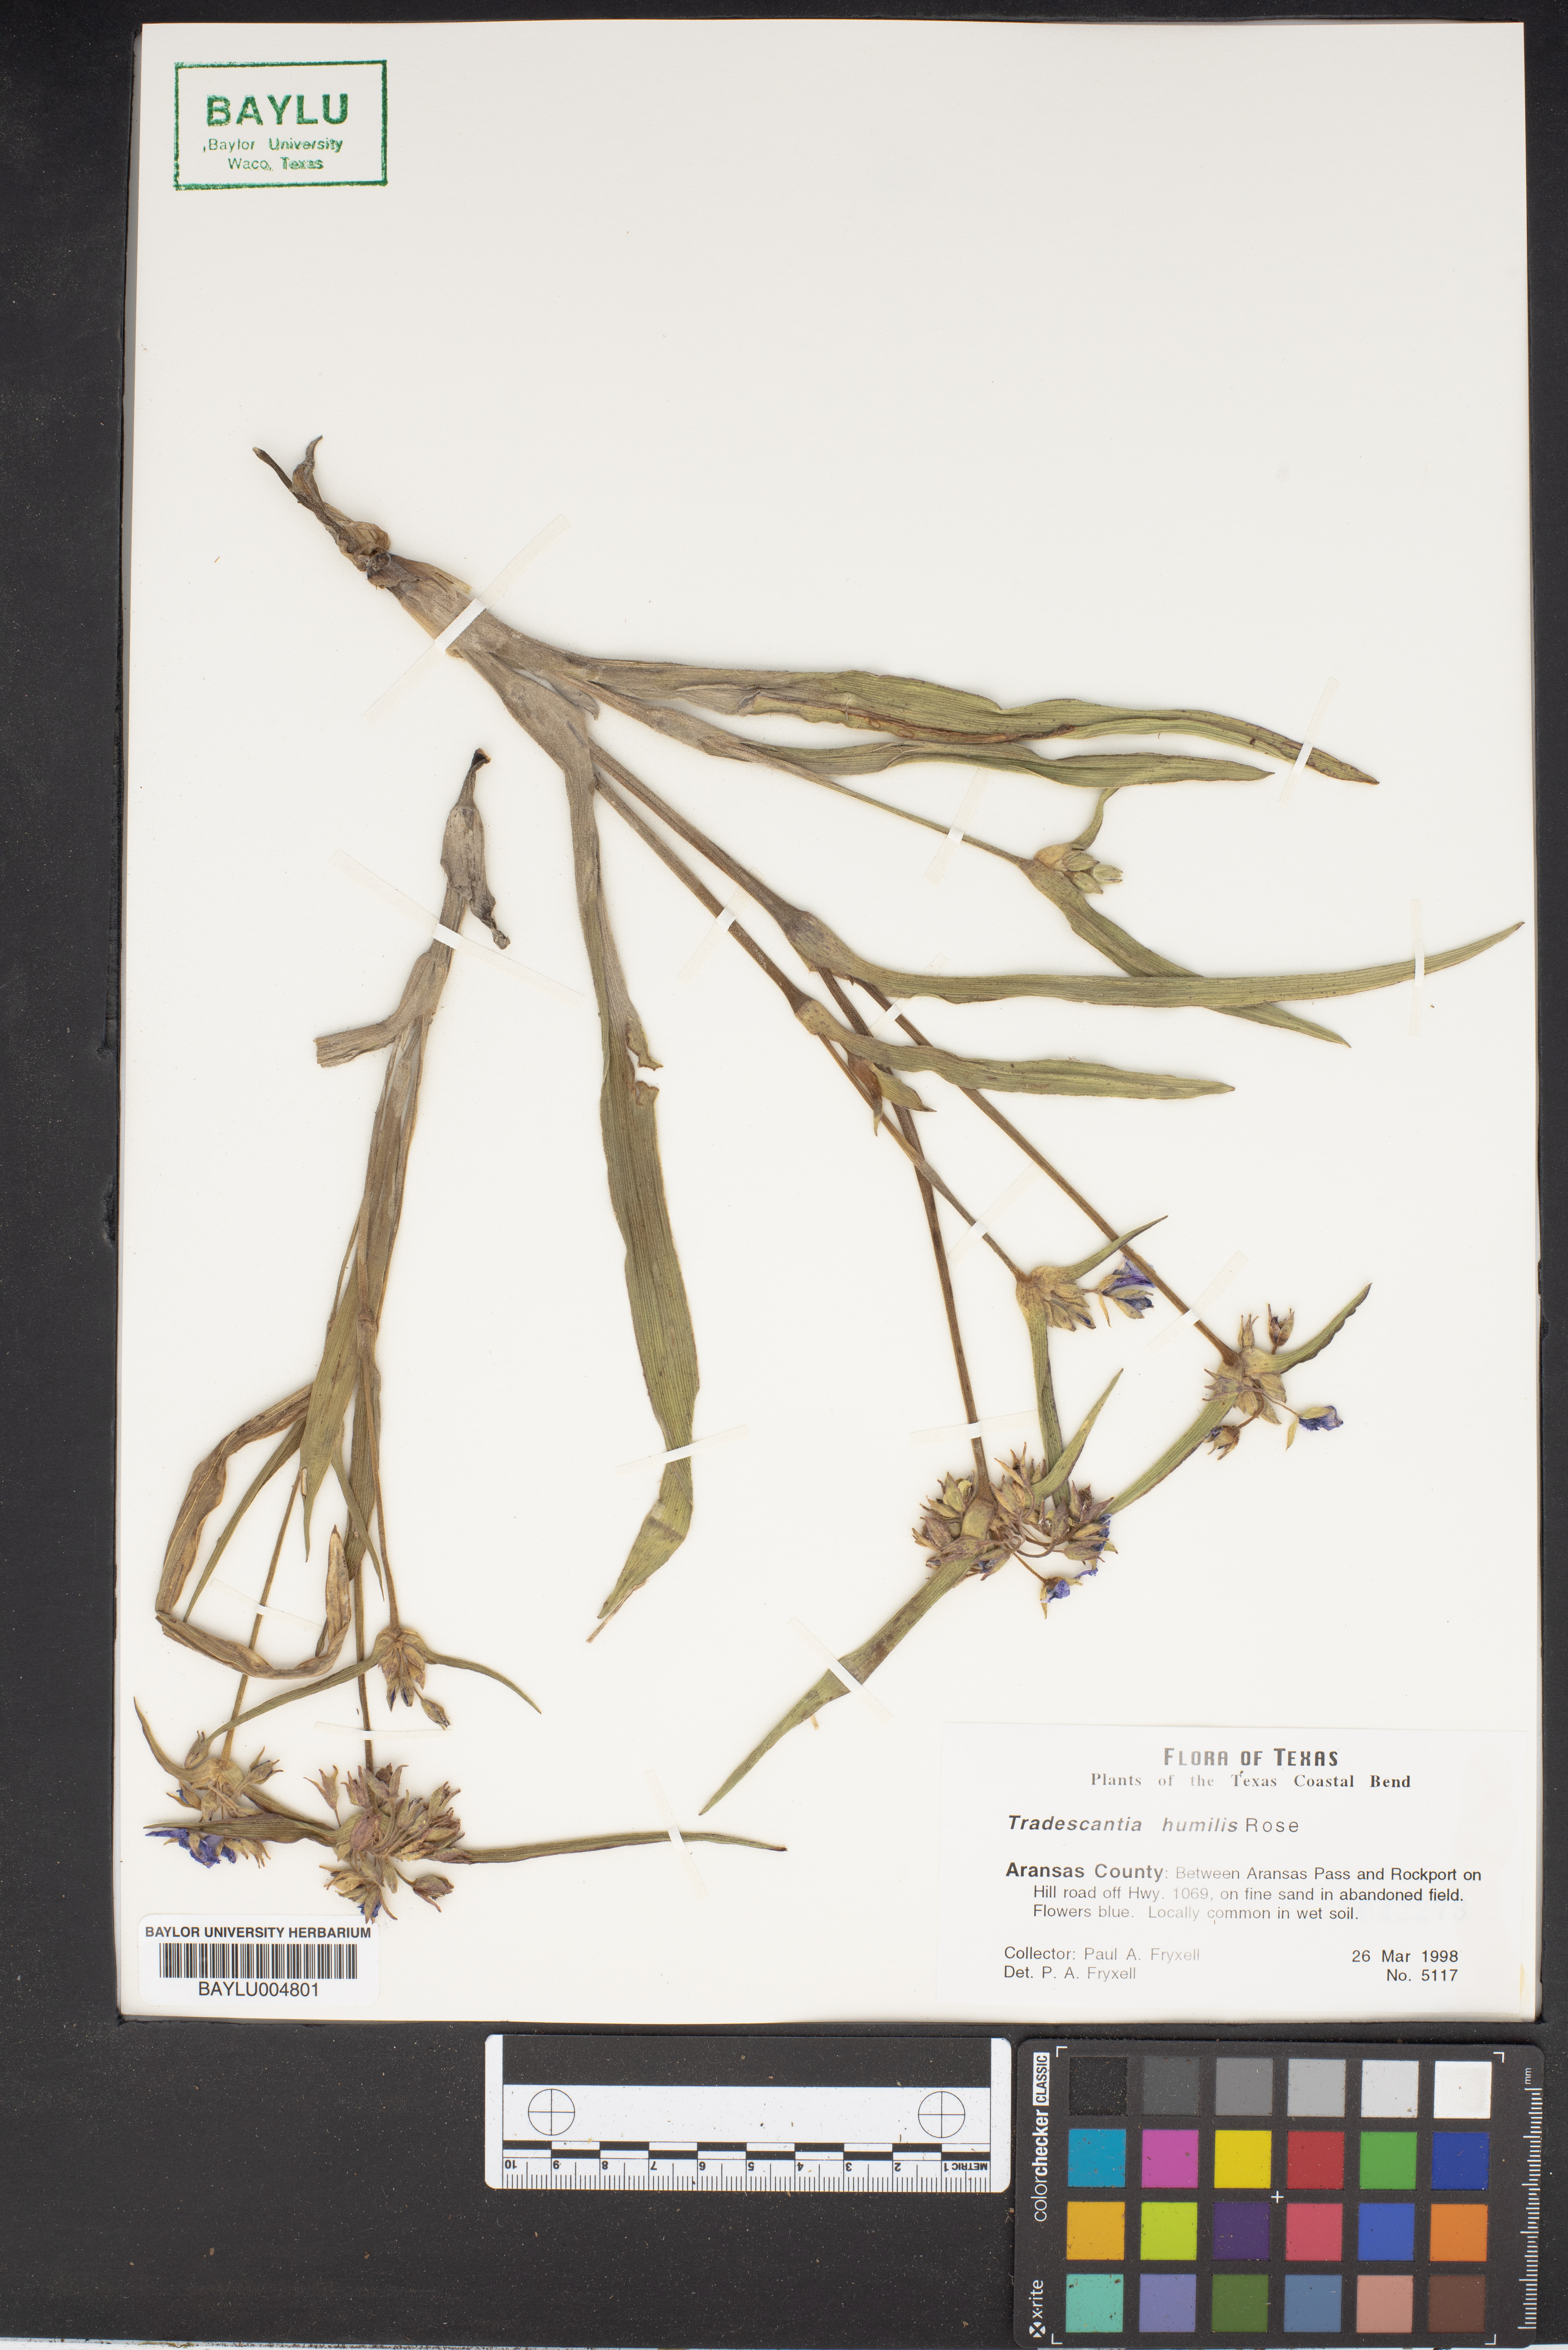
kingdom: Plantae
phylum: Tracheophyta
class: Liliopsida
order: Commelinales
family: Commelinaceae
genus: Tradescantia
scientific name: Tradescantia humilis
